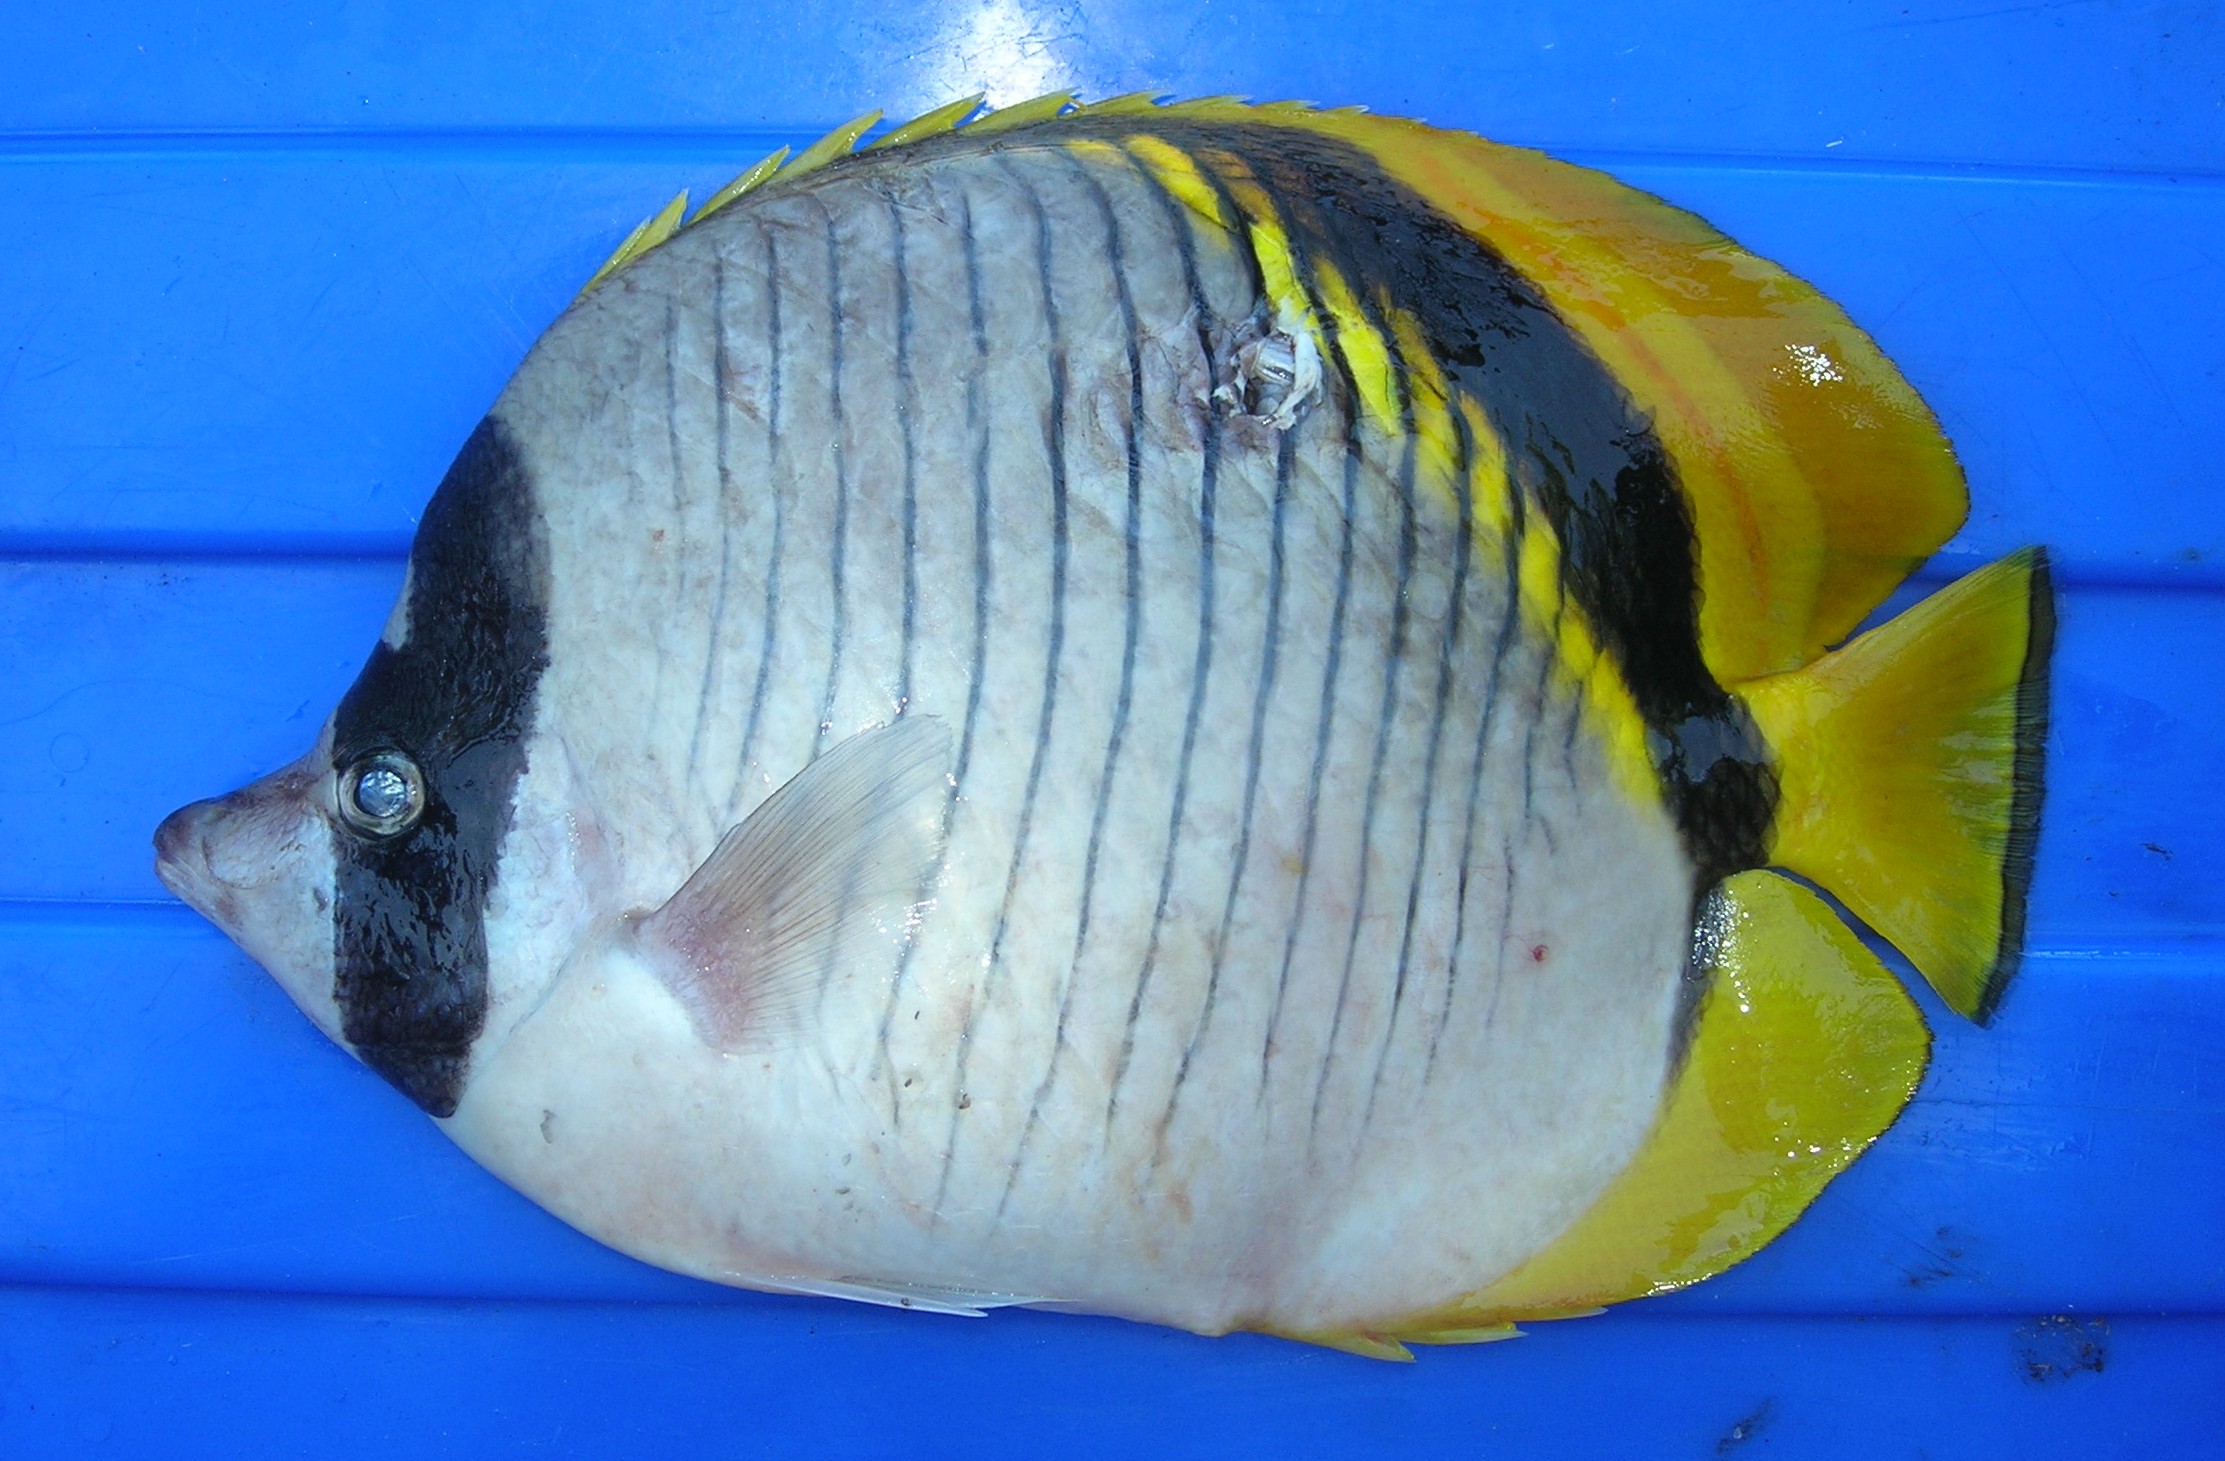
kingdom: Animalia
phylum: Chordata
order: Perciformes
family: Chaetodontidae
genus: Chaetodon
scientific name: Chaetodon lineolatus
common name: Lined butterflyfish
